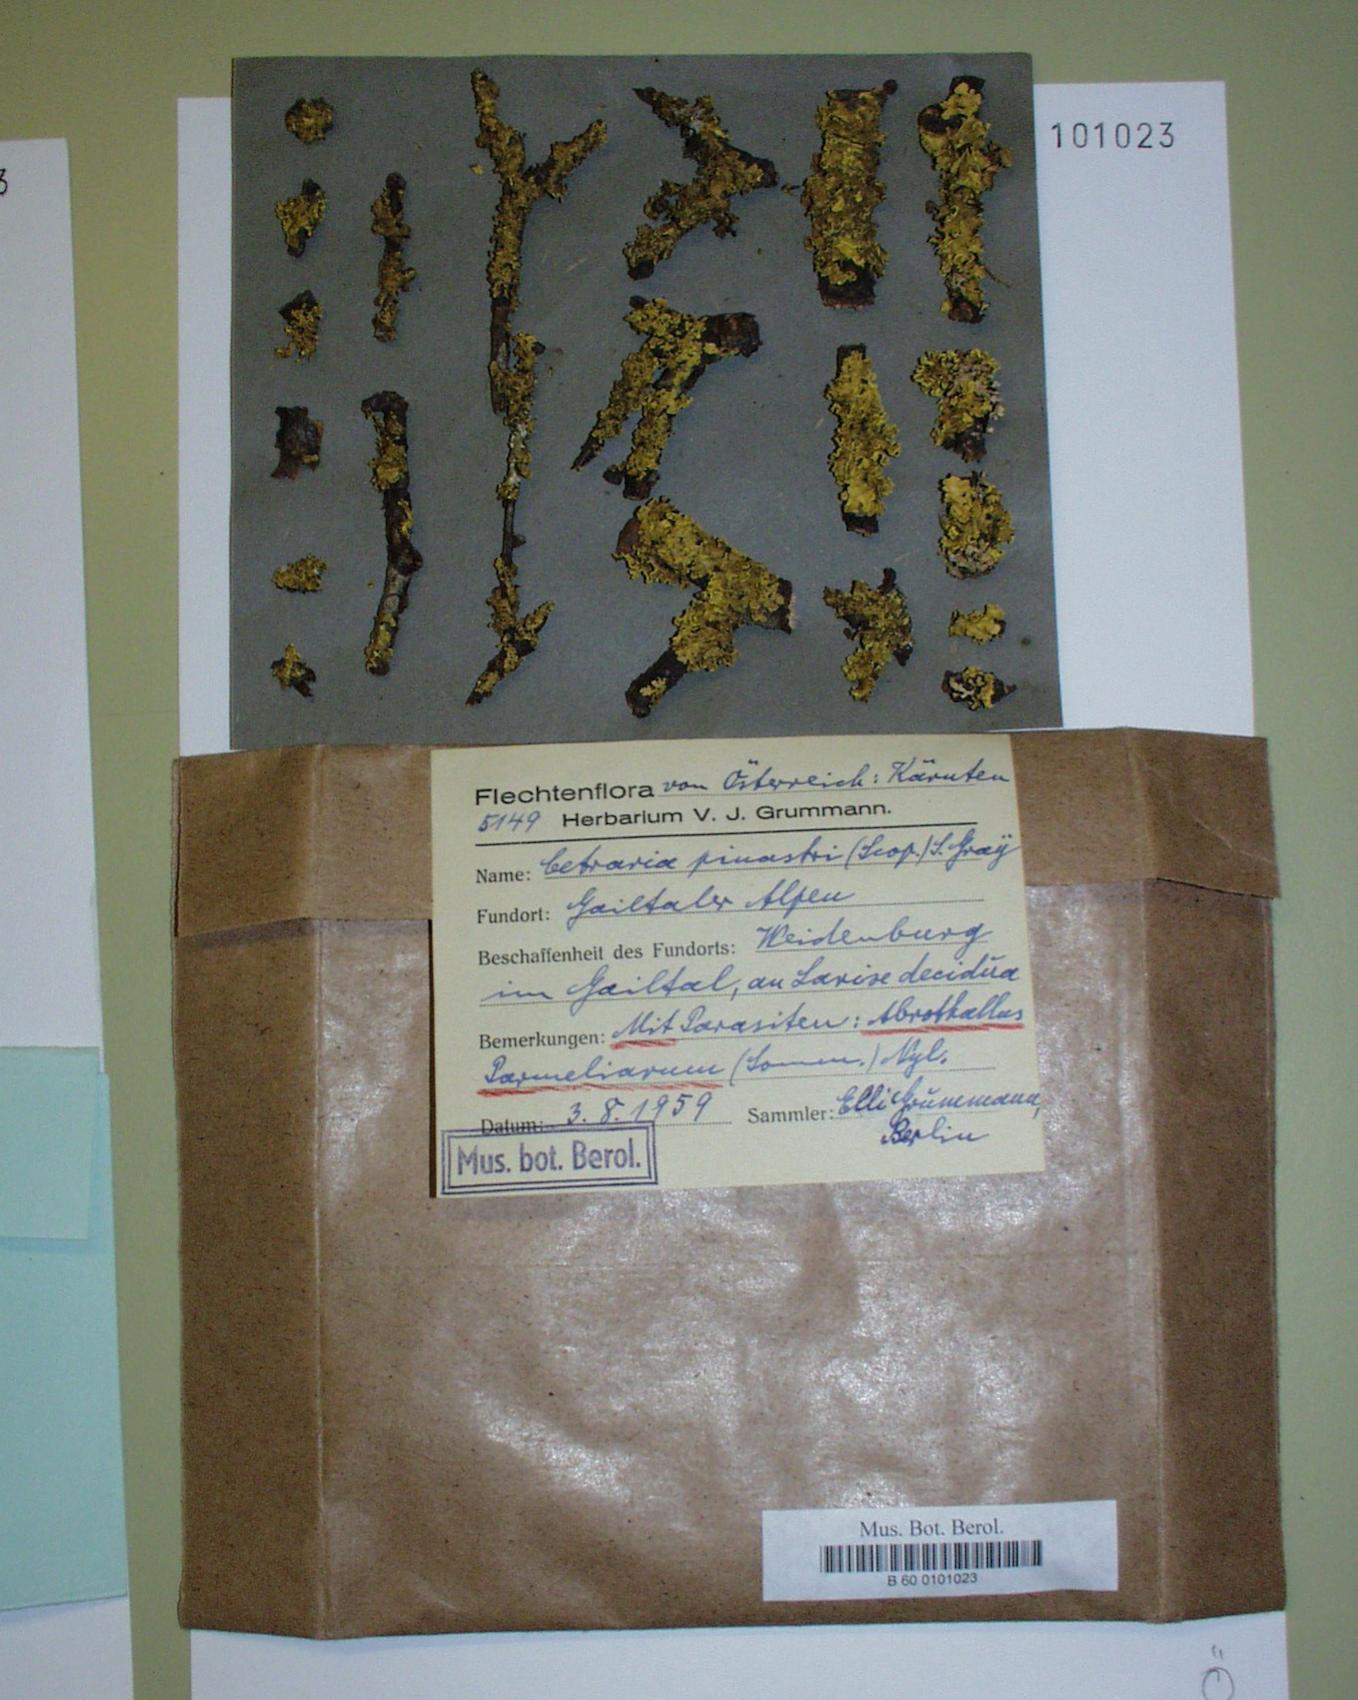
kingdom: Fungi
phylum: Ascomycota
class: Dothideomycetes
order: Abrothallales
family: Abrothallaceae
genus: Abrothallus
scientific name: Abrothallus parmeliarum
